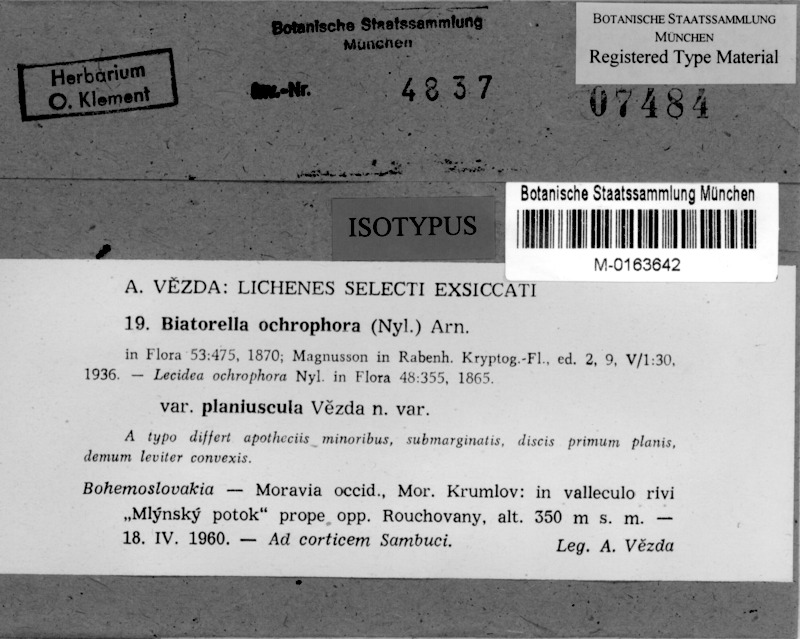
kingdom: Fungi
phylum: Ascomycota
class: Lecanoromycetes
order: Lecanorales
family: Biatorellaceae
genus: Piccolia
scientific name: Piccolia ochrophora
